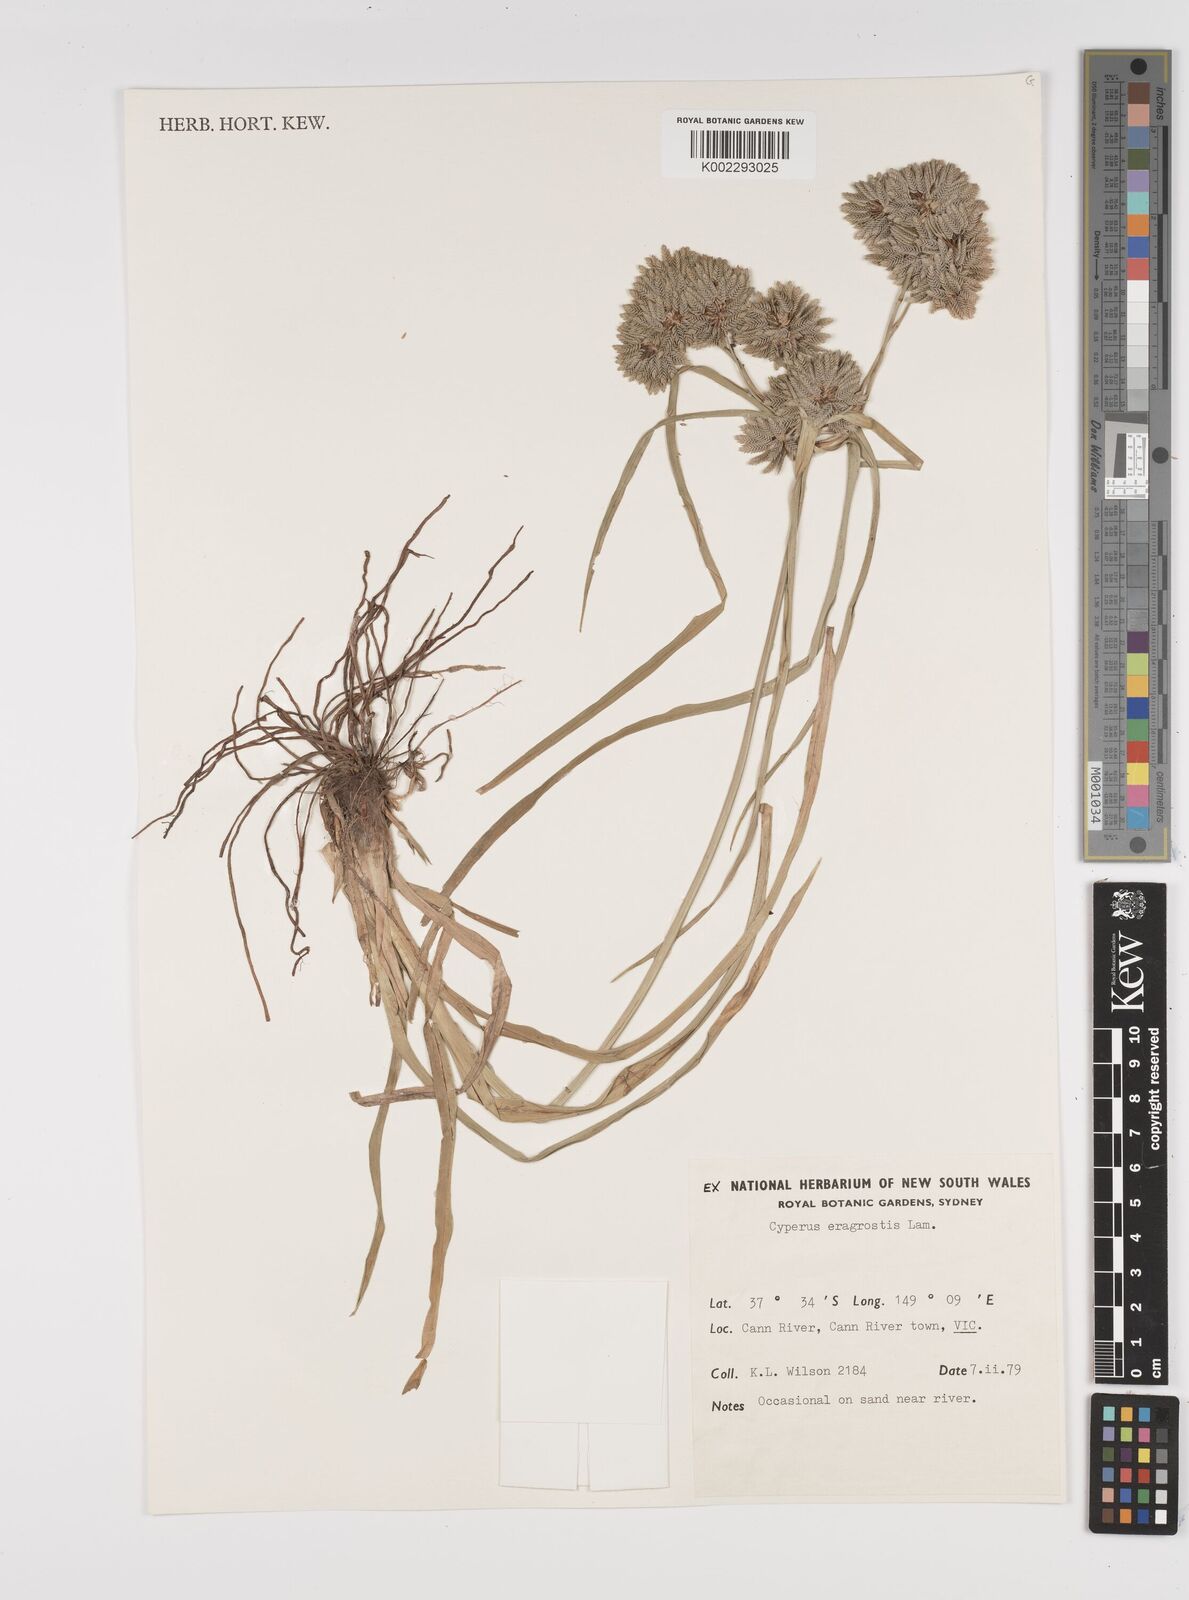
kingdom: Plantae
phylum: Tracheophyta
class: Liliopsida
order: Poales
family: Cyperaceae
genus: Cyperus
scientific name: Cyperus eragrostis
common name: Tall flatsedge
